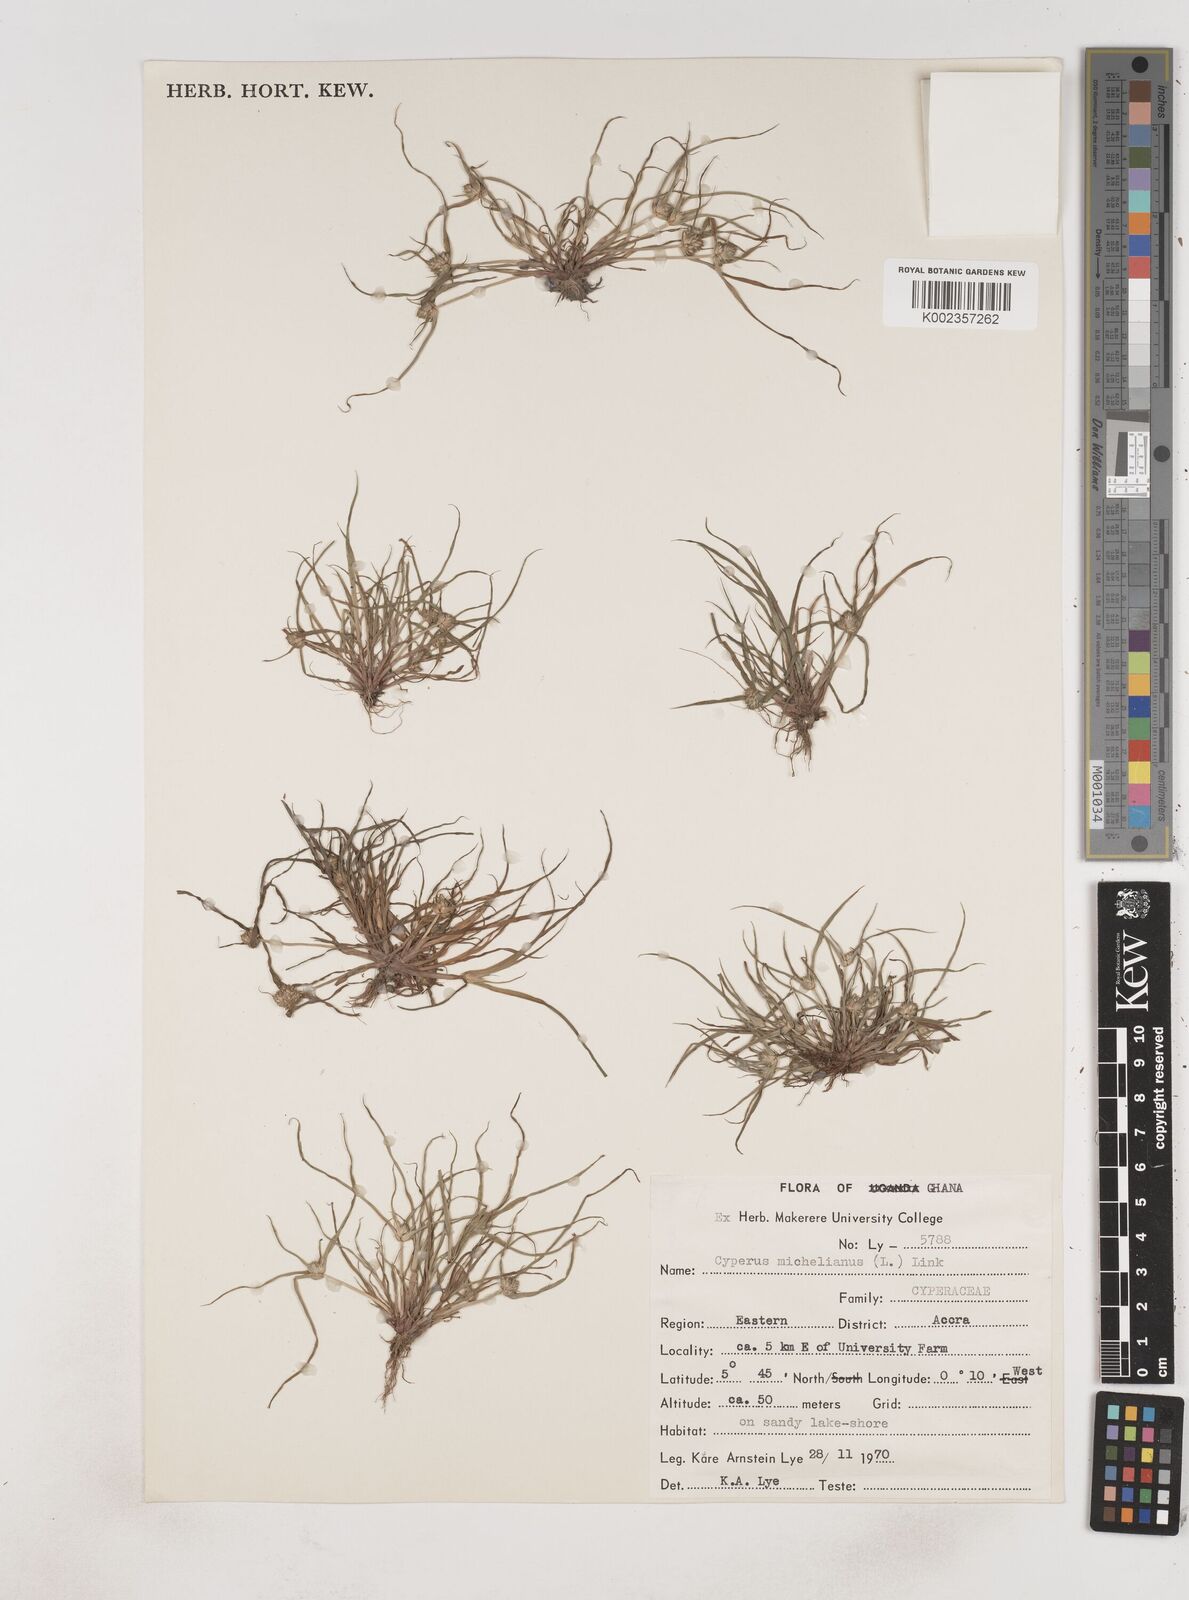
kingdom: Plantae
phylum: Tracheophyta
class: Liliopsida
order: Poales
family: Cyperaceae
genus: Cyperus
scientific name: Cyperus michelianus
